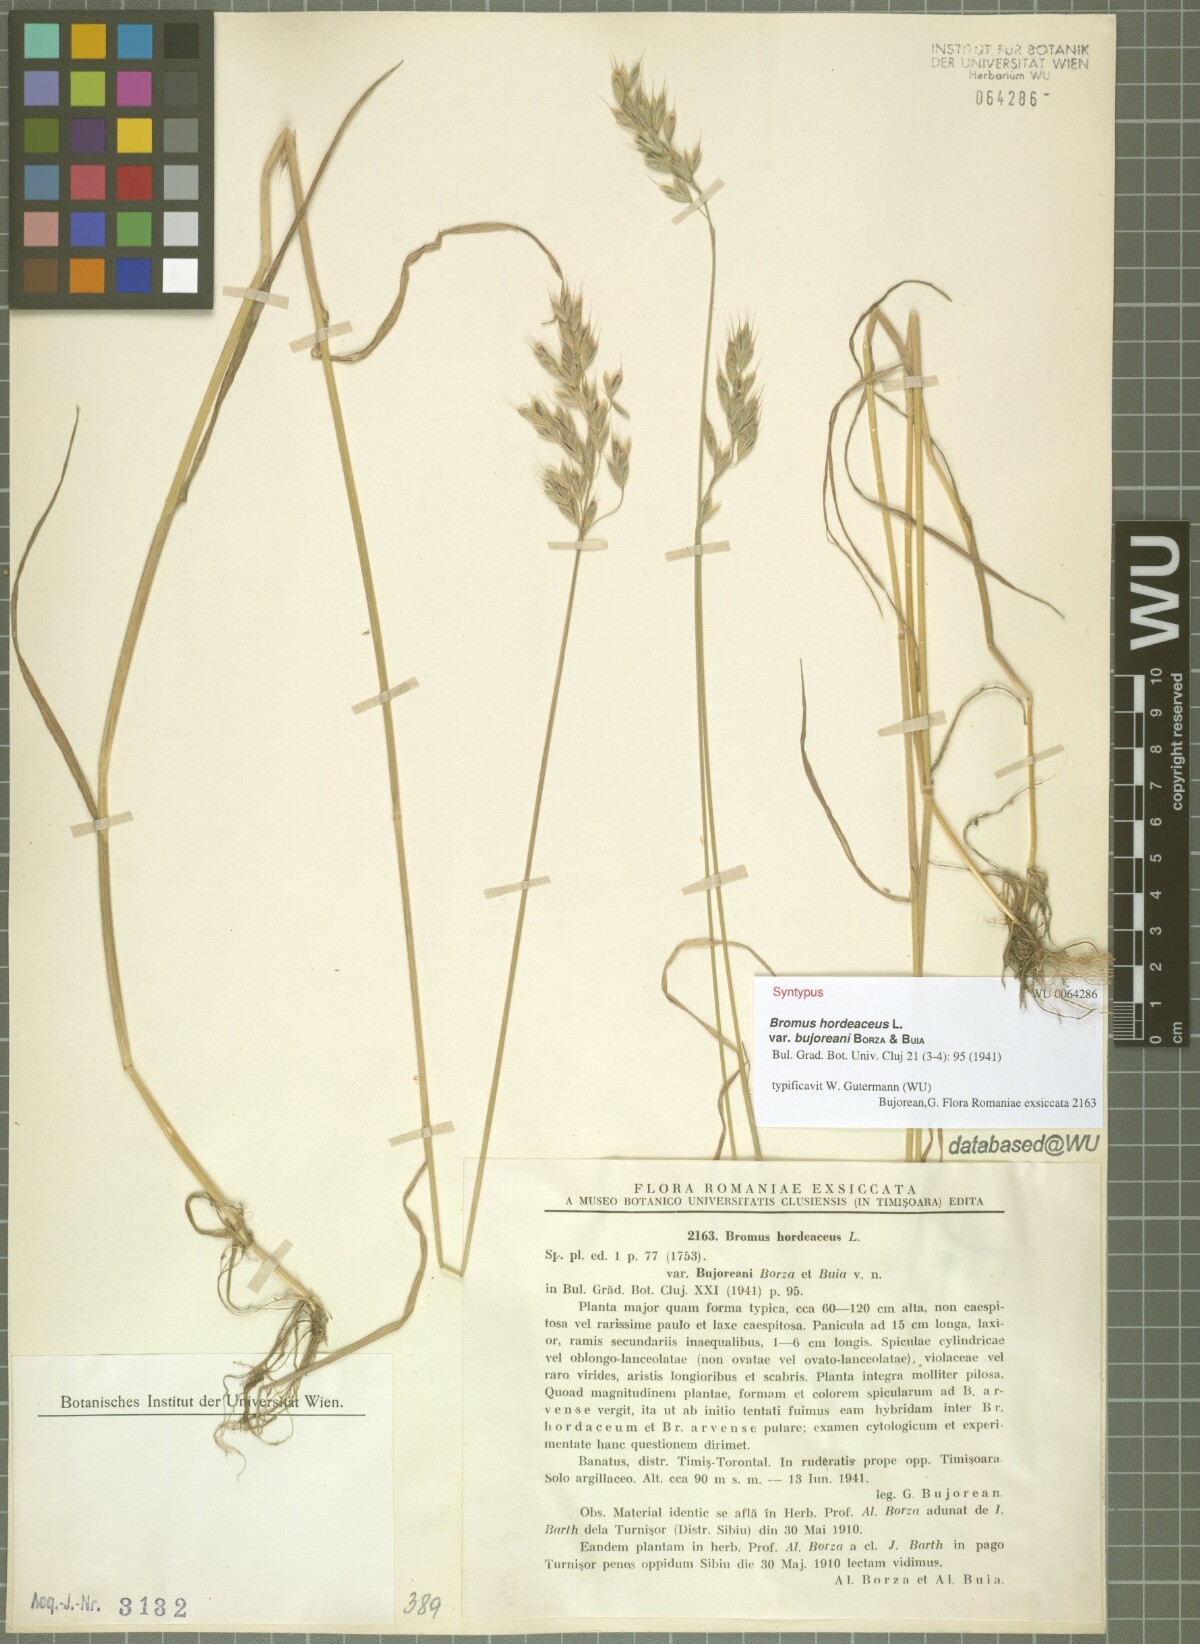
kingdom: Plantae
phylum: Tracheophyta
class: Liliopsida
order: Poales
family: Poaceae
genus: Bromus
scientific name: Bromus hordeaceus
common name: Soft brome
